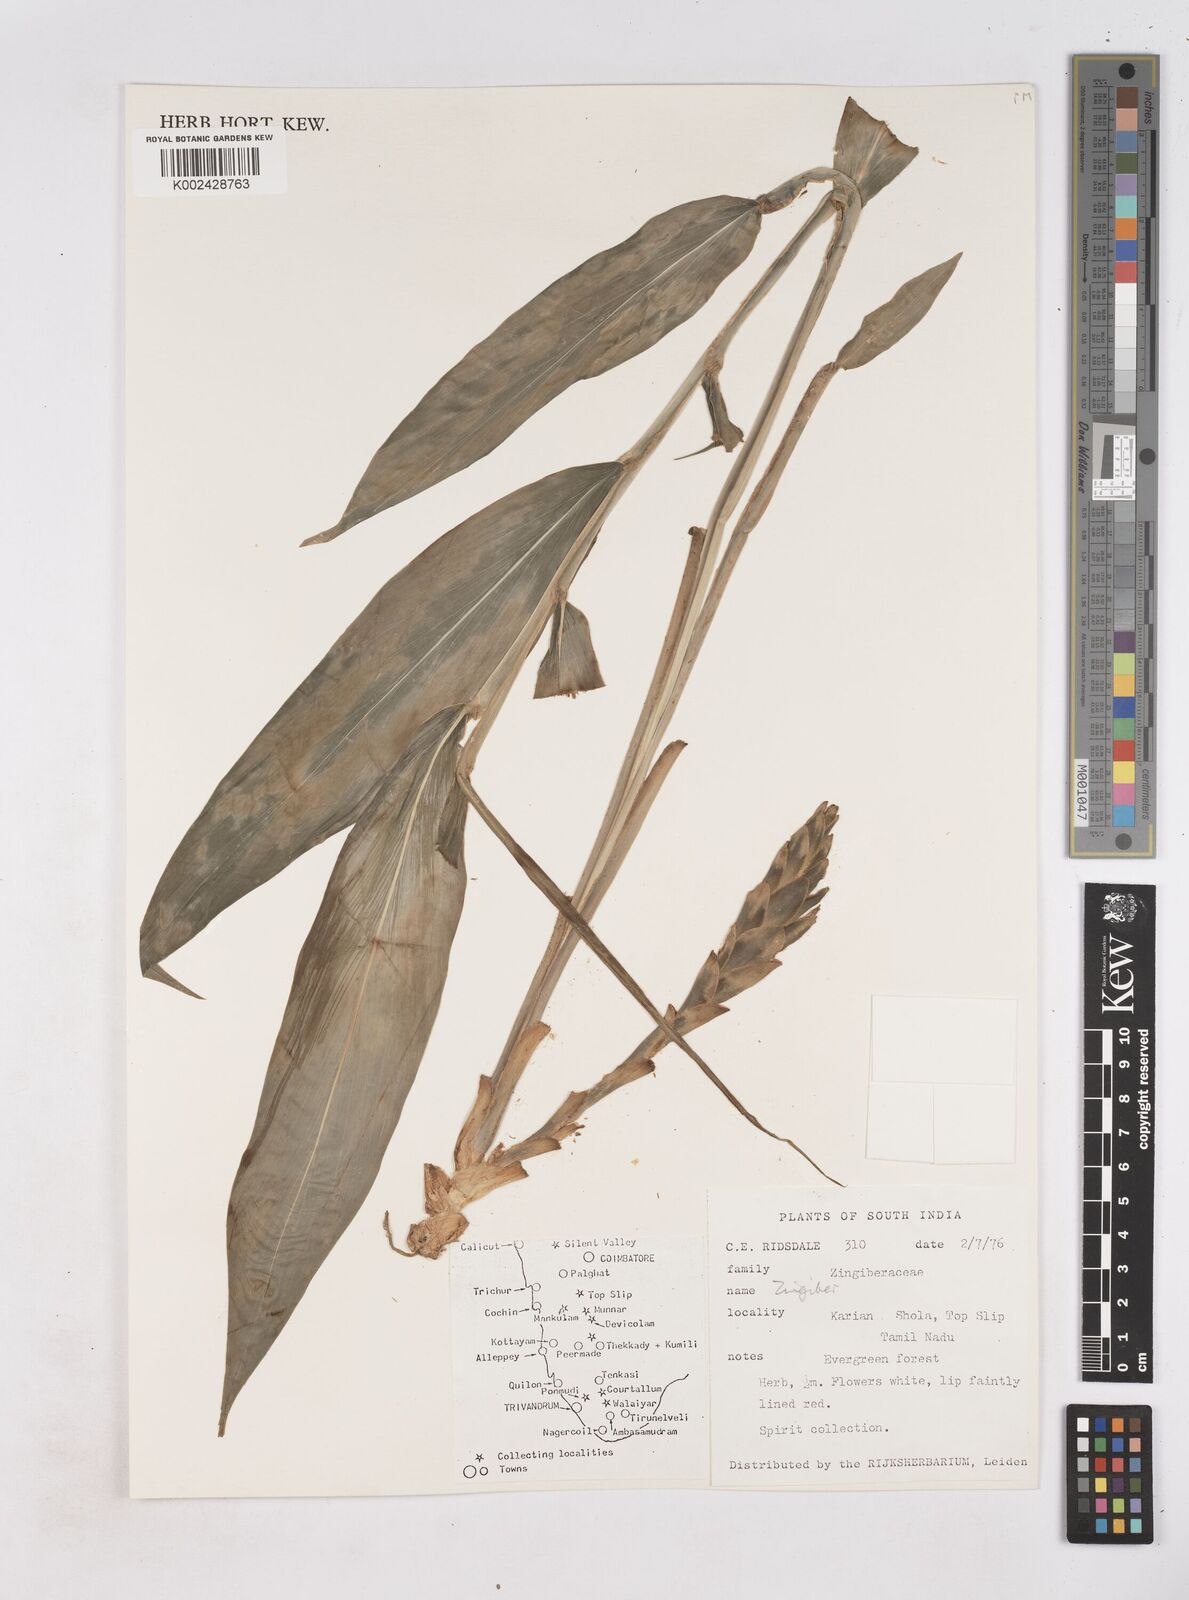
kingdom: Plantae
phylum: Tracheophyta
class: Liliopsida
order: Zingiberales
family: Zingiberaceae
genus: Zingiber
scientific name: Zingiber
